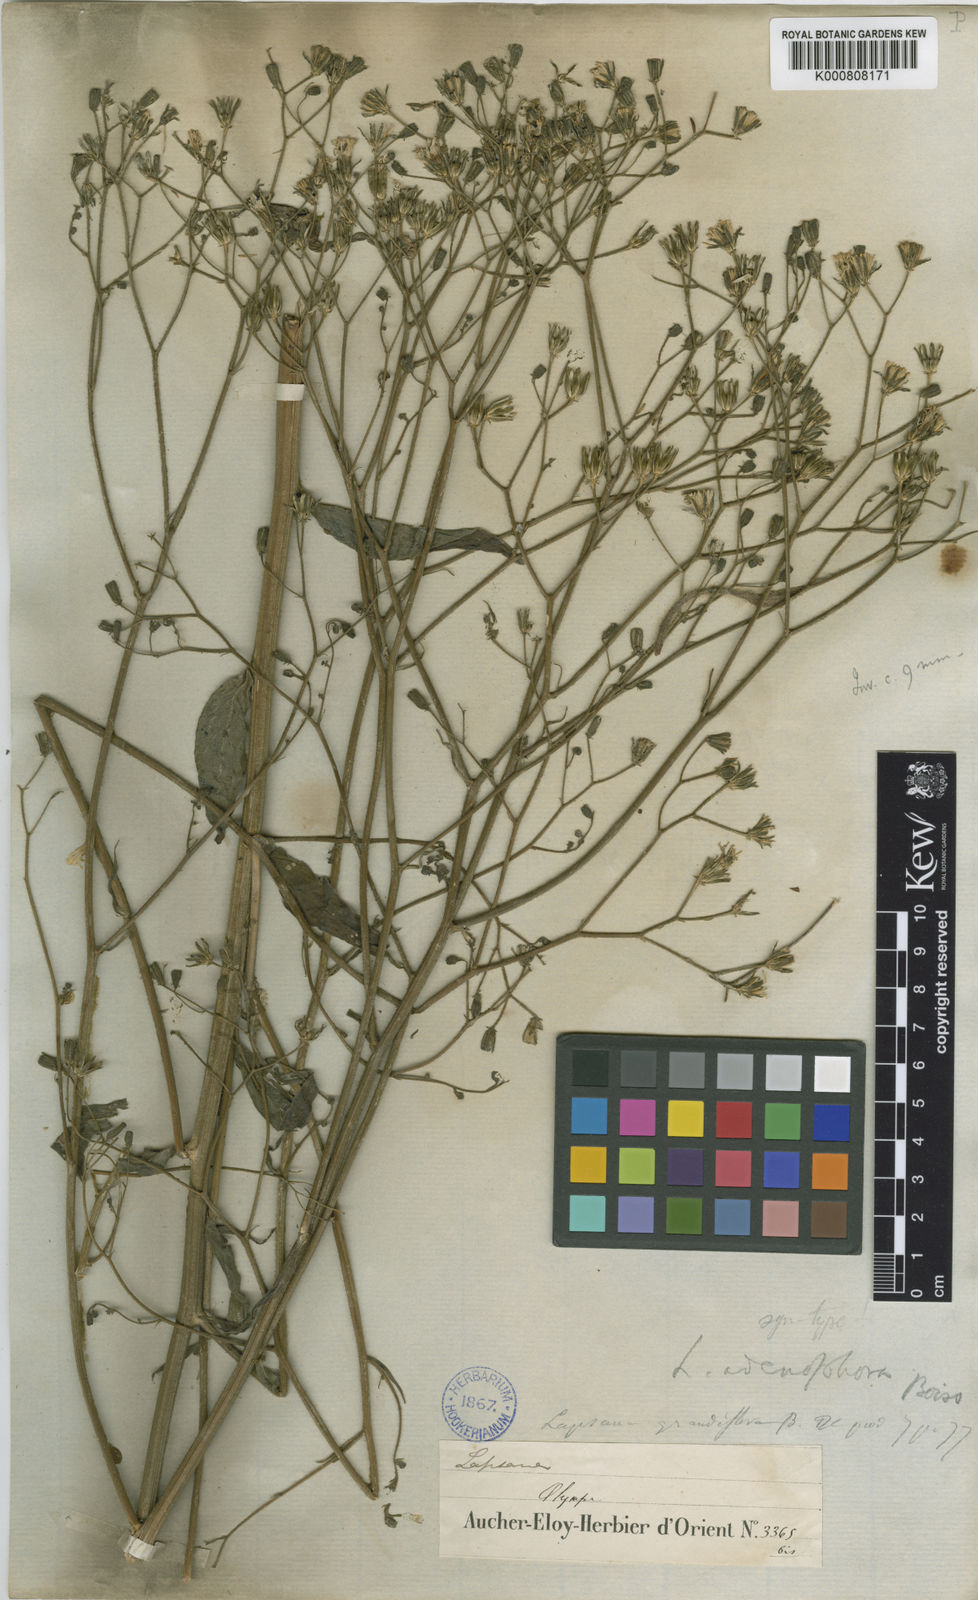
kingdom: Plantae
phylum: Tracheophyta
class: Magnoliopsida
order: Asterales
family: Asteraceae
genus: Lapsana
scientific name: Lapsana communis
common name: Nipplewort
